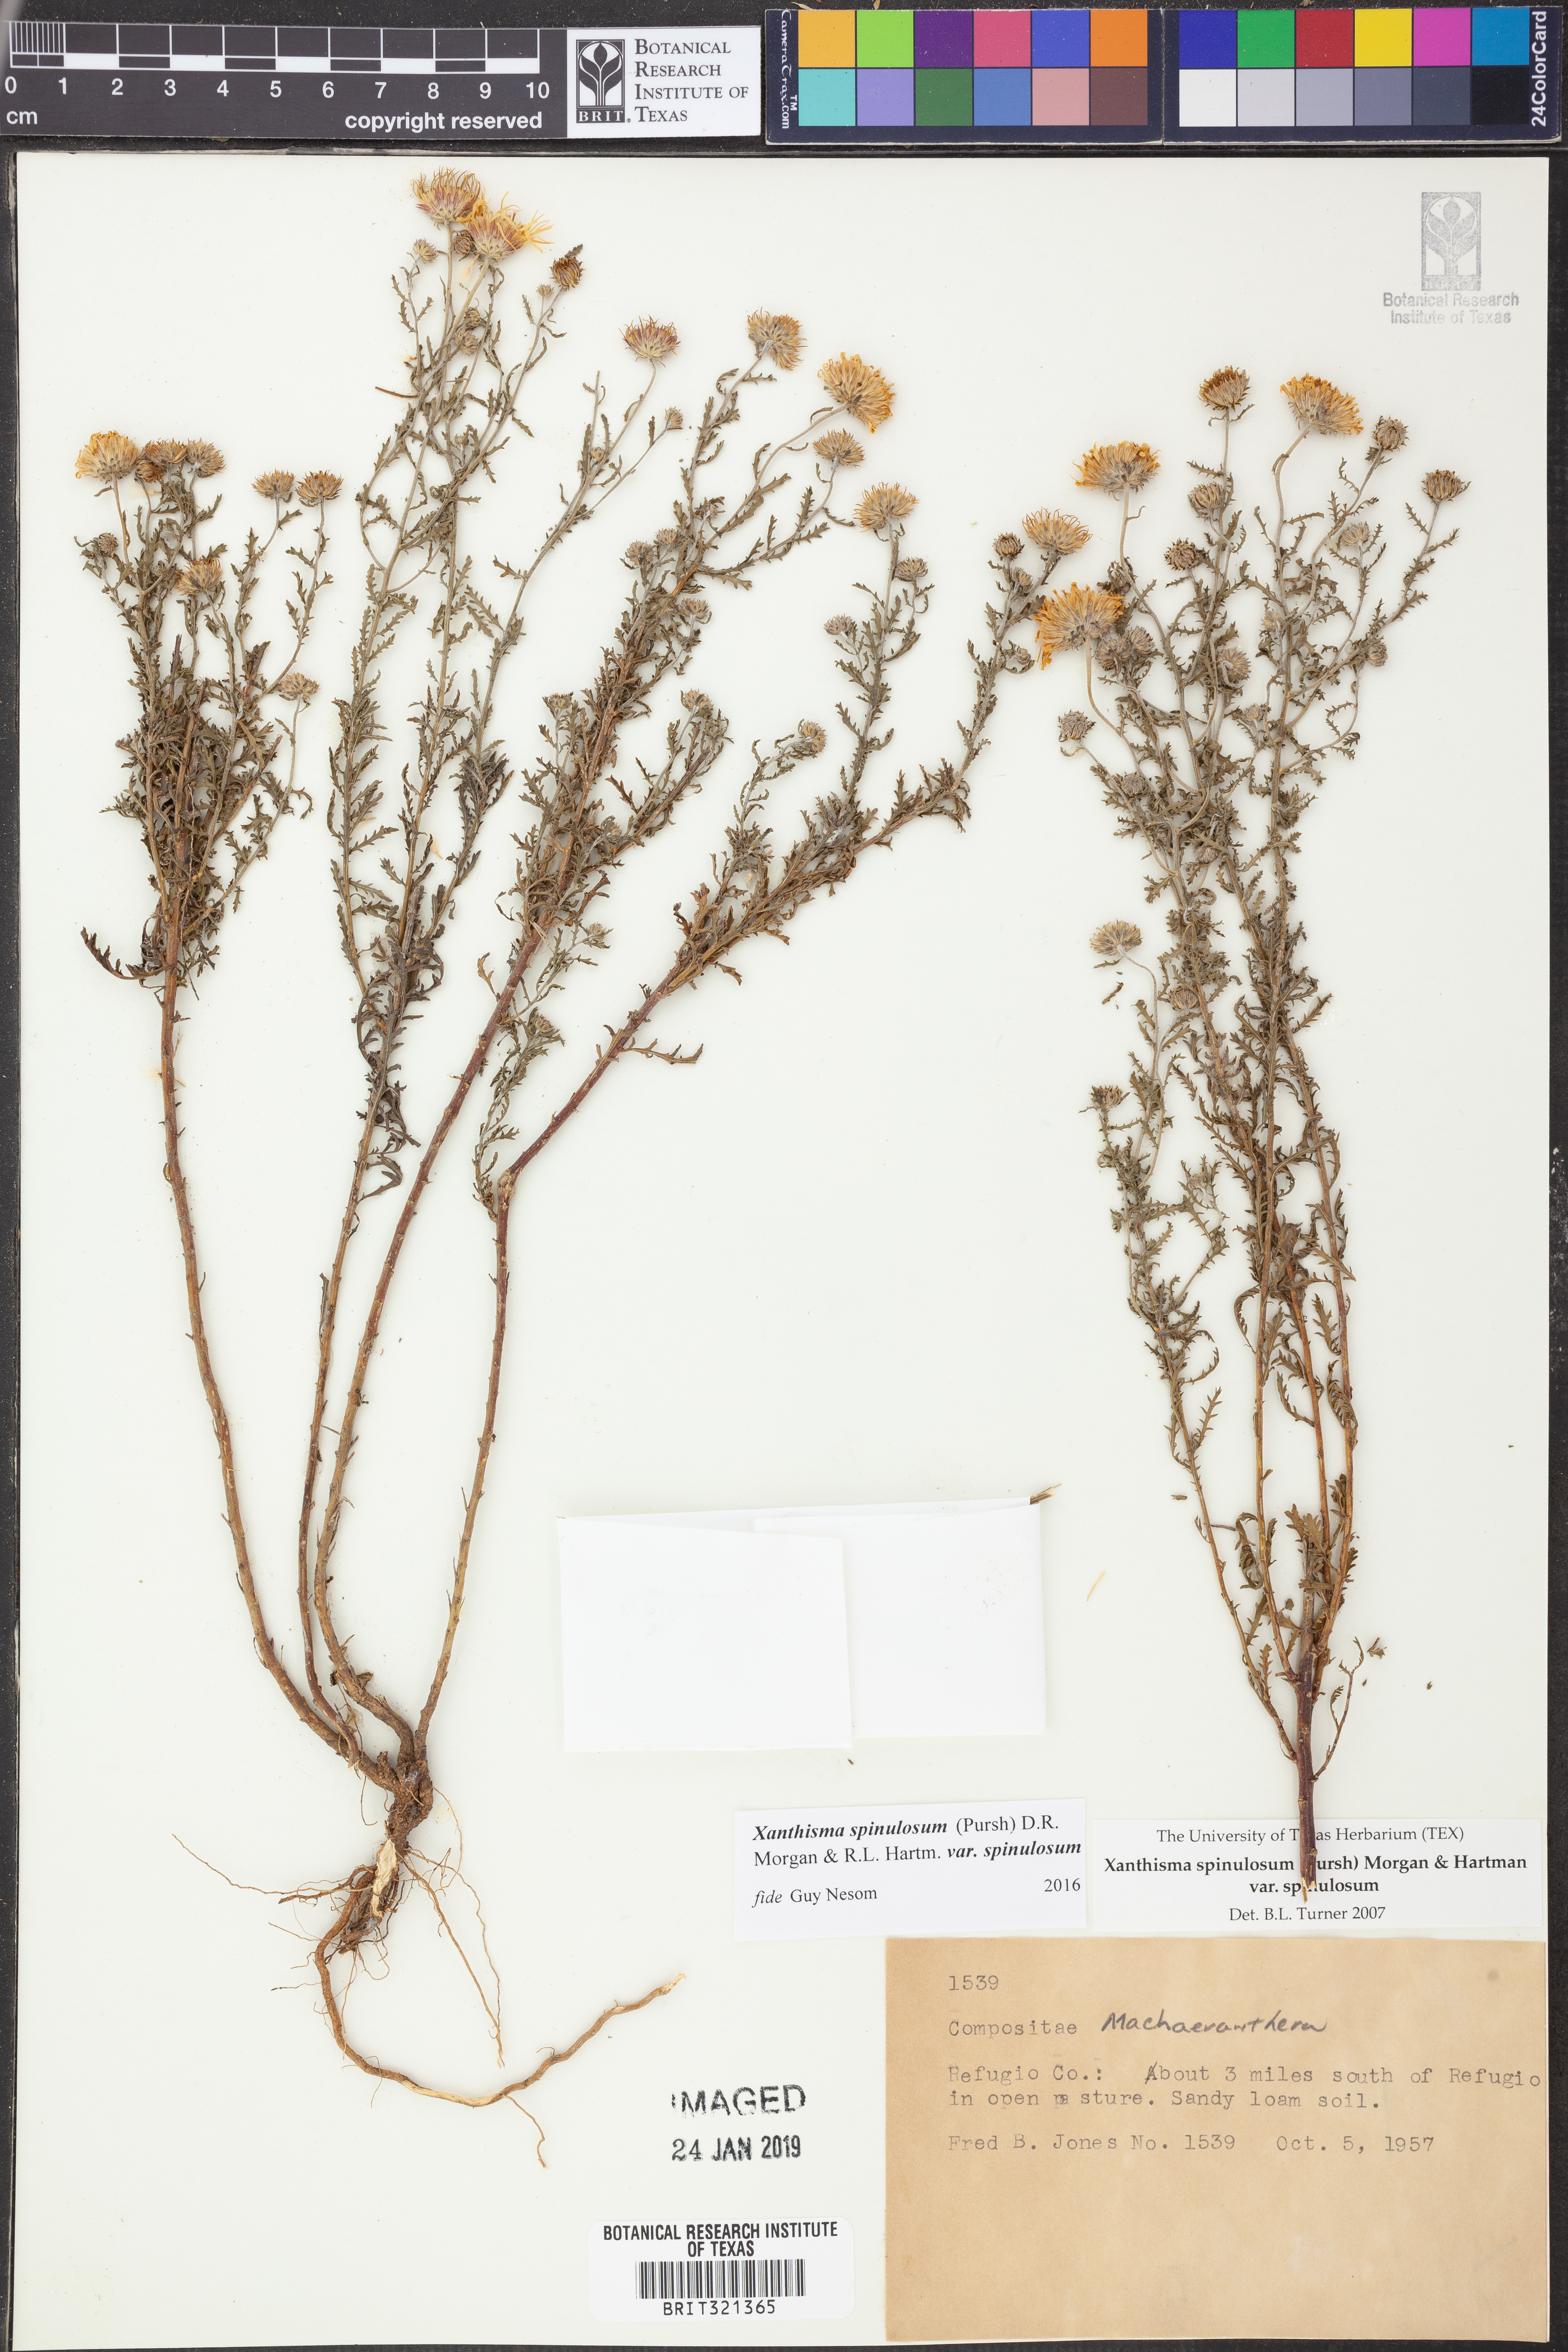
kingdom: Plantae
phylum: Tracheophyta
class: Magnoliopsida
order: Asterales
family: Asteraceae
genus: Xanthisma
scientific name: Xanthisma spinulosum
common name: Spiny goldenweed
